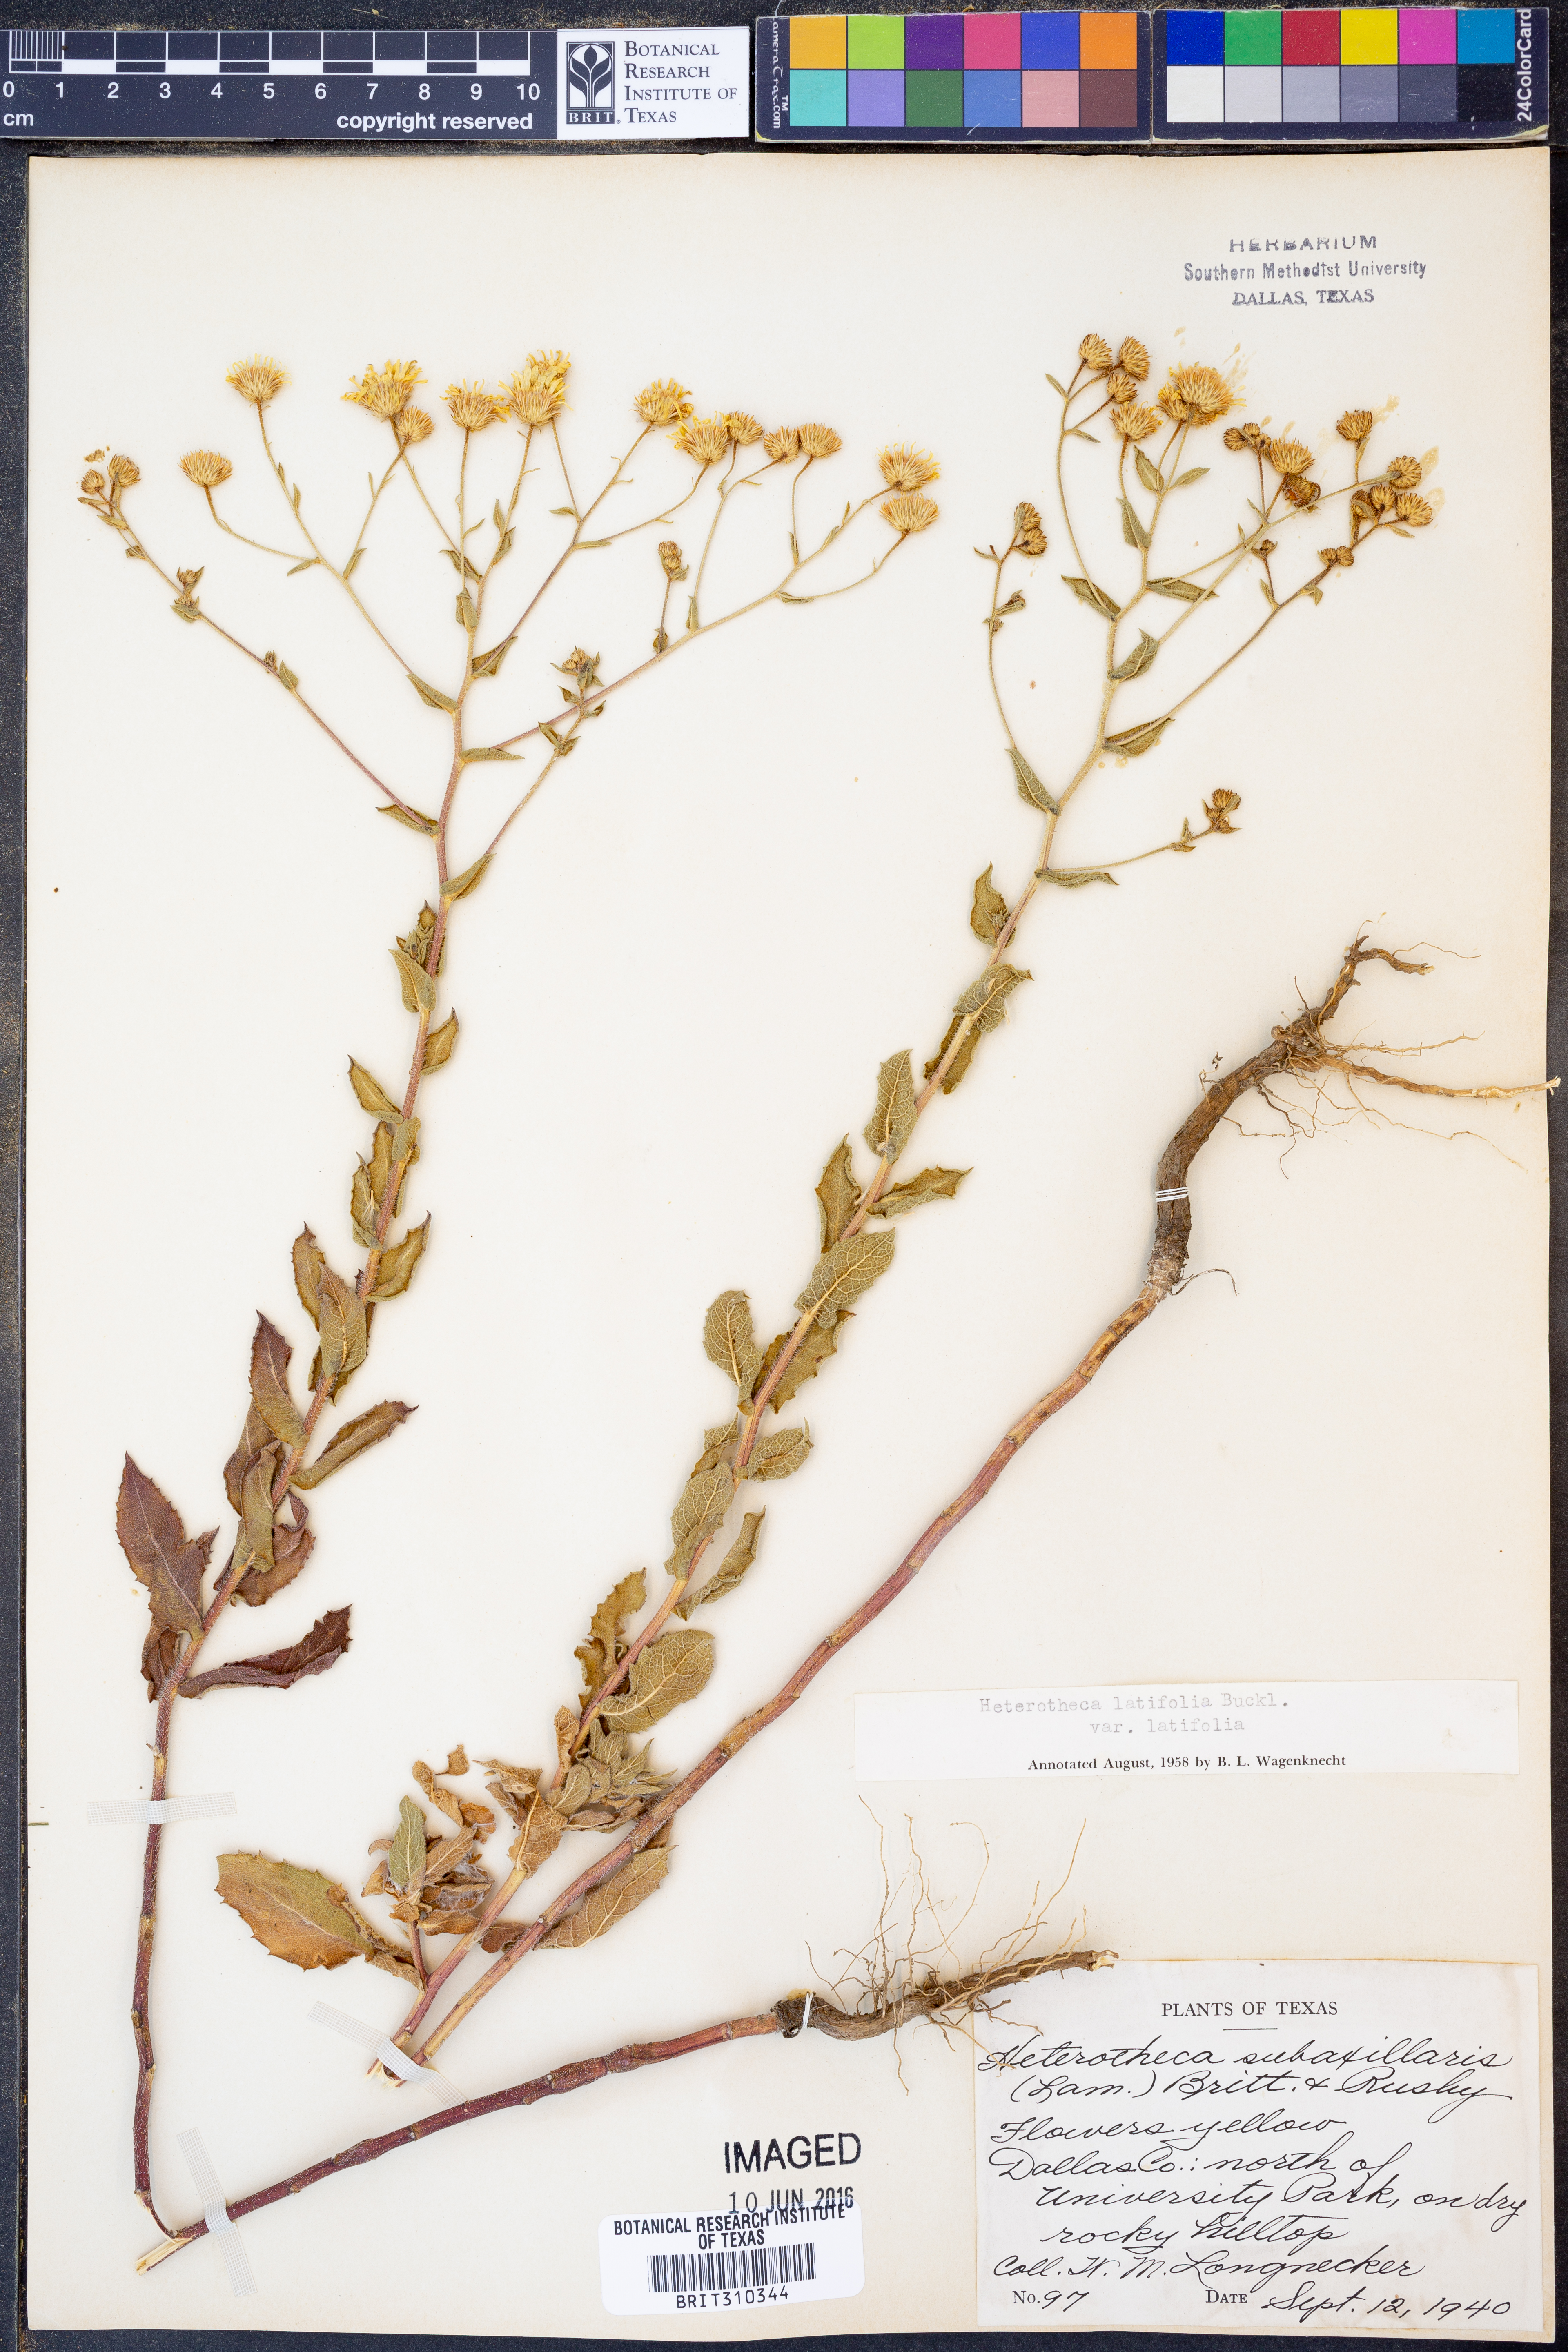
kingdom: Plantae
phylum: Tracheophyta
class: Magnoliopsida
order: Asterales
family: Asteraceae
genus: Heterotheca
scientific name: Heterotheca subaxillaris
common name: Camphorweed
